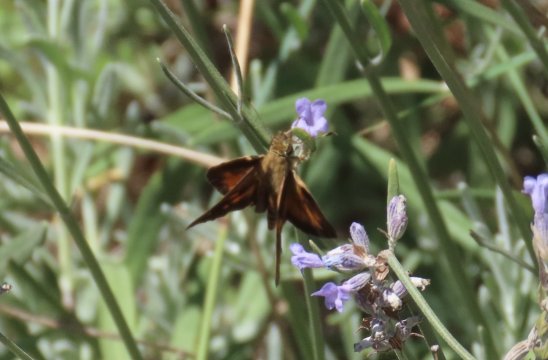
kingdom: Animalia
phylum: Arthropoda
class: Insecta
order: Lepidoptera
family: Hesperiidae
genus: Ancyloxypha
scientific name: Ancyloxypha numitor
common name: Least Skipper
